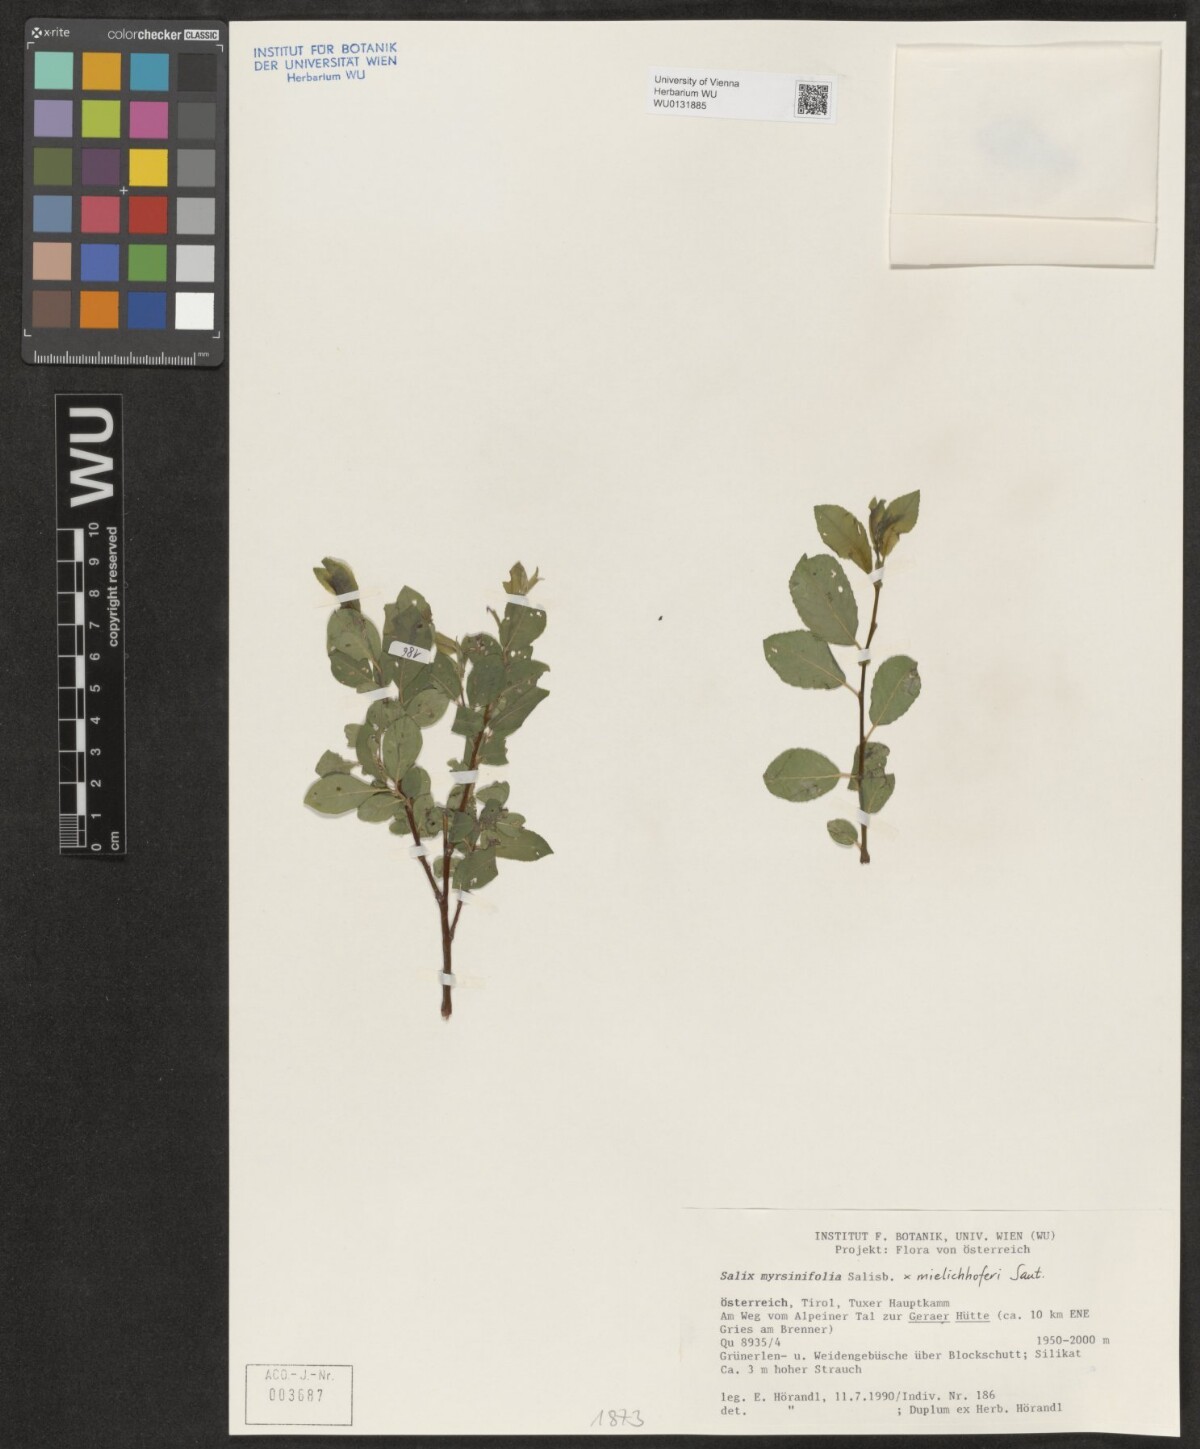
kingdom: Plantae
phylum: Tracheophyta
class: Magnoliopsida
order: Malpighiales
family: Salicaceae
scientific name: Salicaceae
